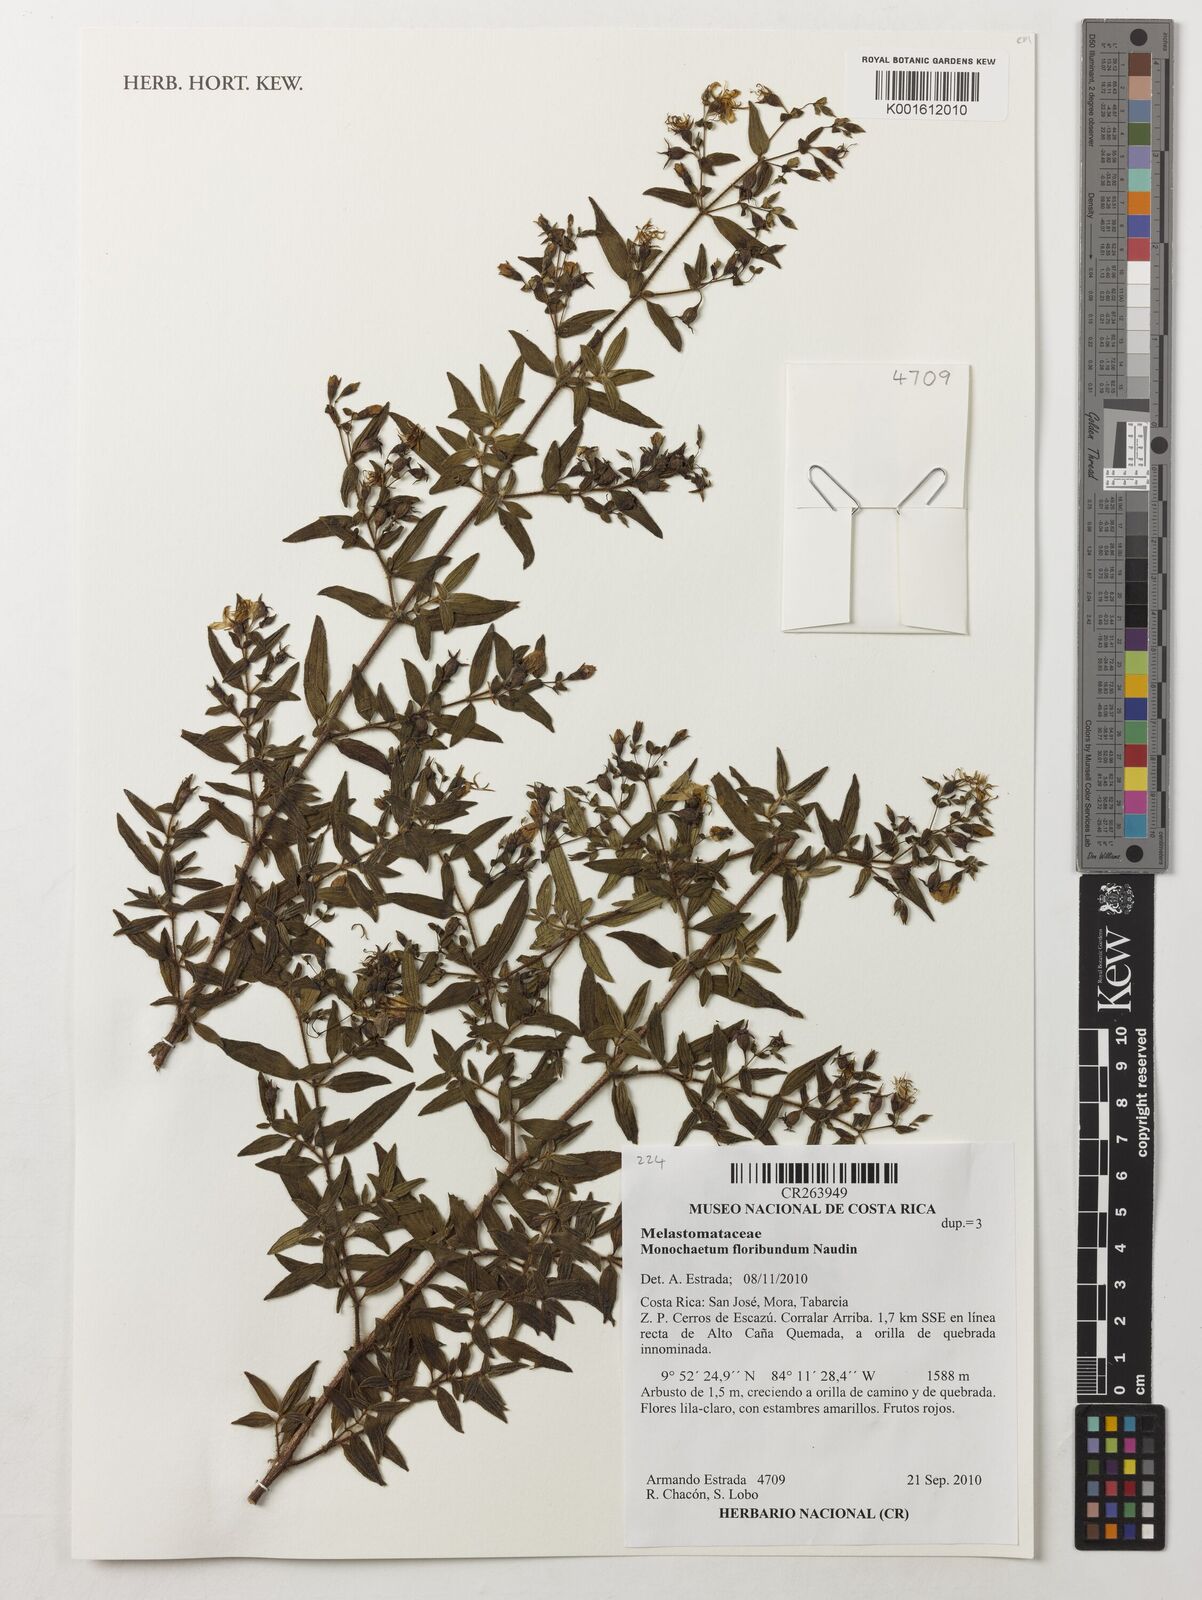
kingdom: Plantae
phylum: Tracheophyta
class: Magnoliopsida
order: Myrtales
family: Melastomataceae
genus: Monochaetum
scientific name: Monochaetum floribundum
